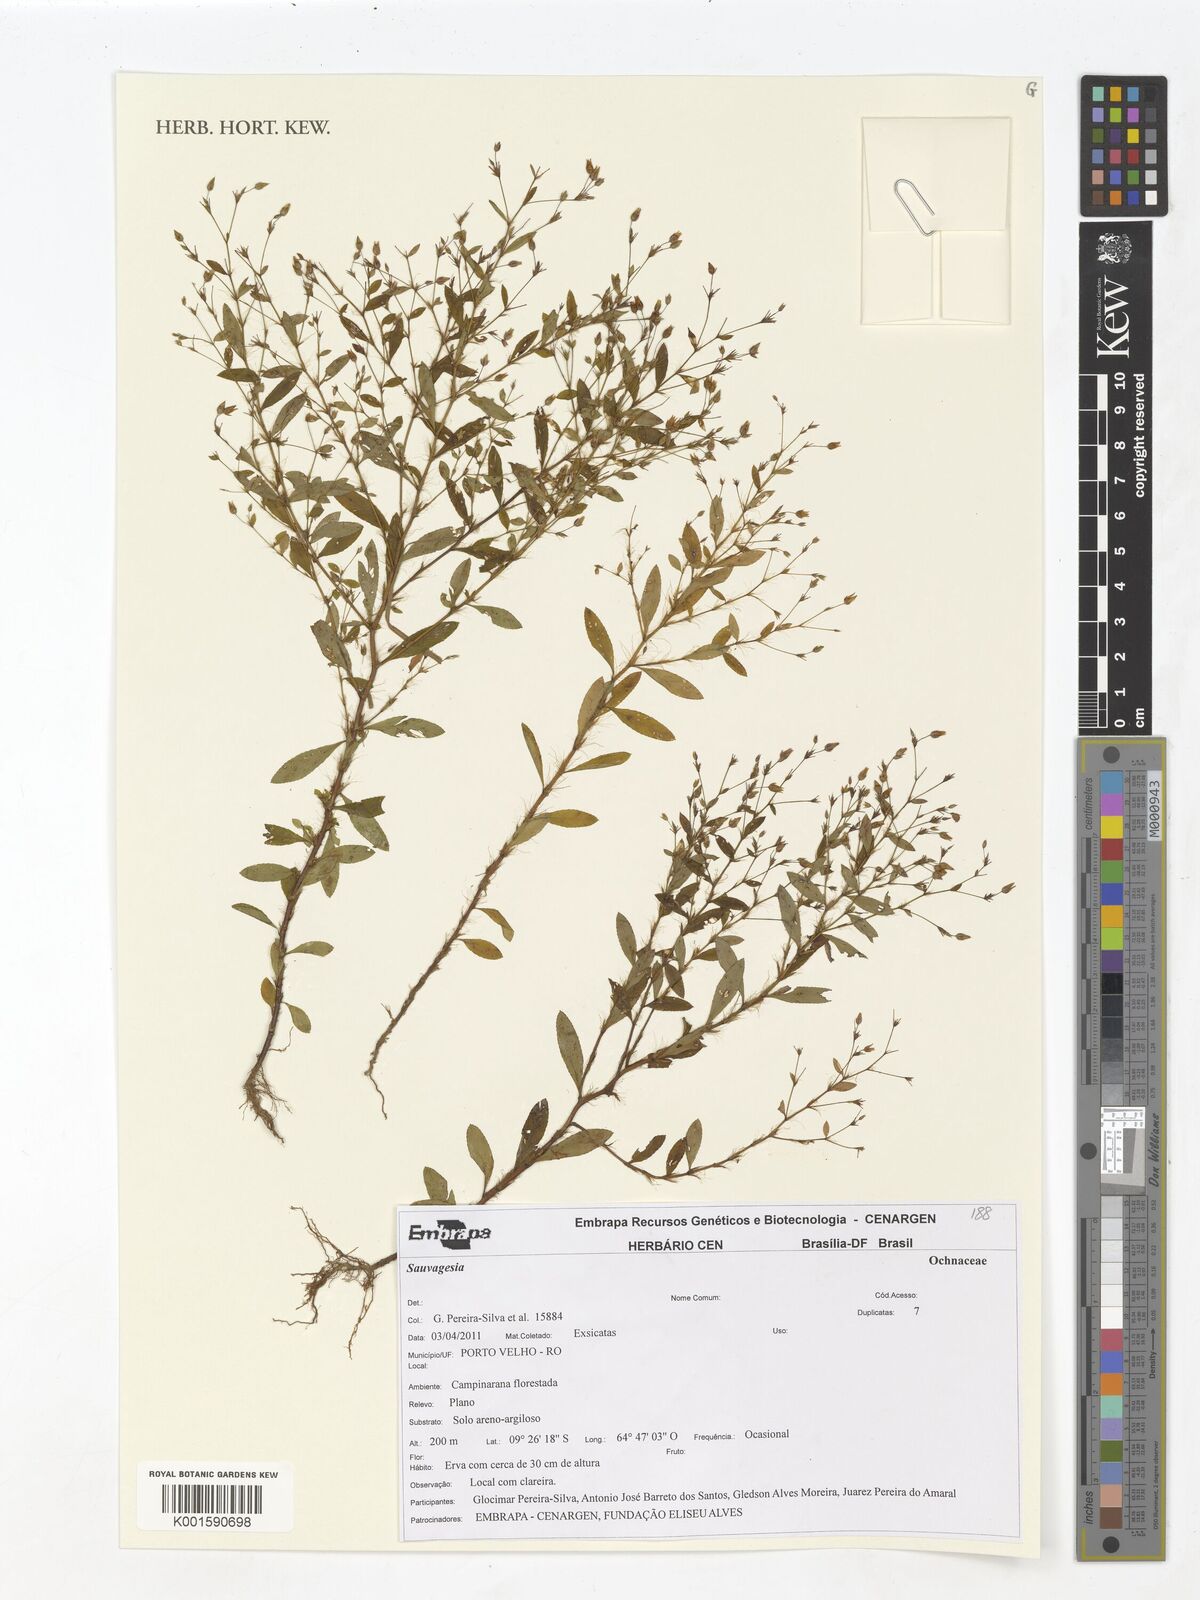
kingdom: Plantae
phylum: Tracheophyta
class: Magnoliopsida
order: Malpighiales
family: Ochnaceae
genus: Sauvagesia
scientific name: Sauvagesia
